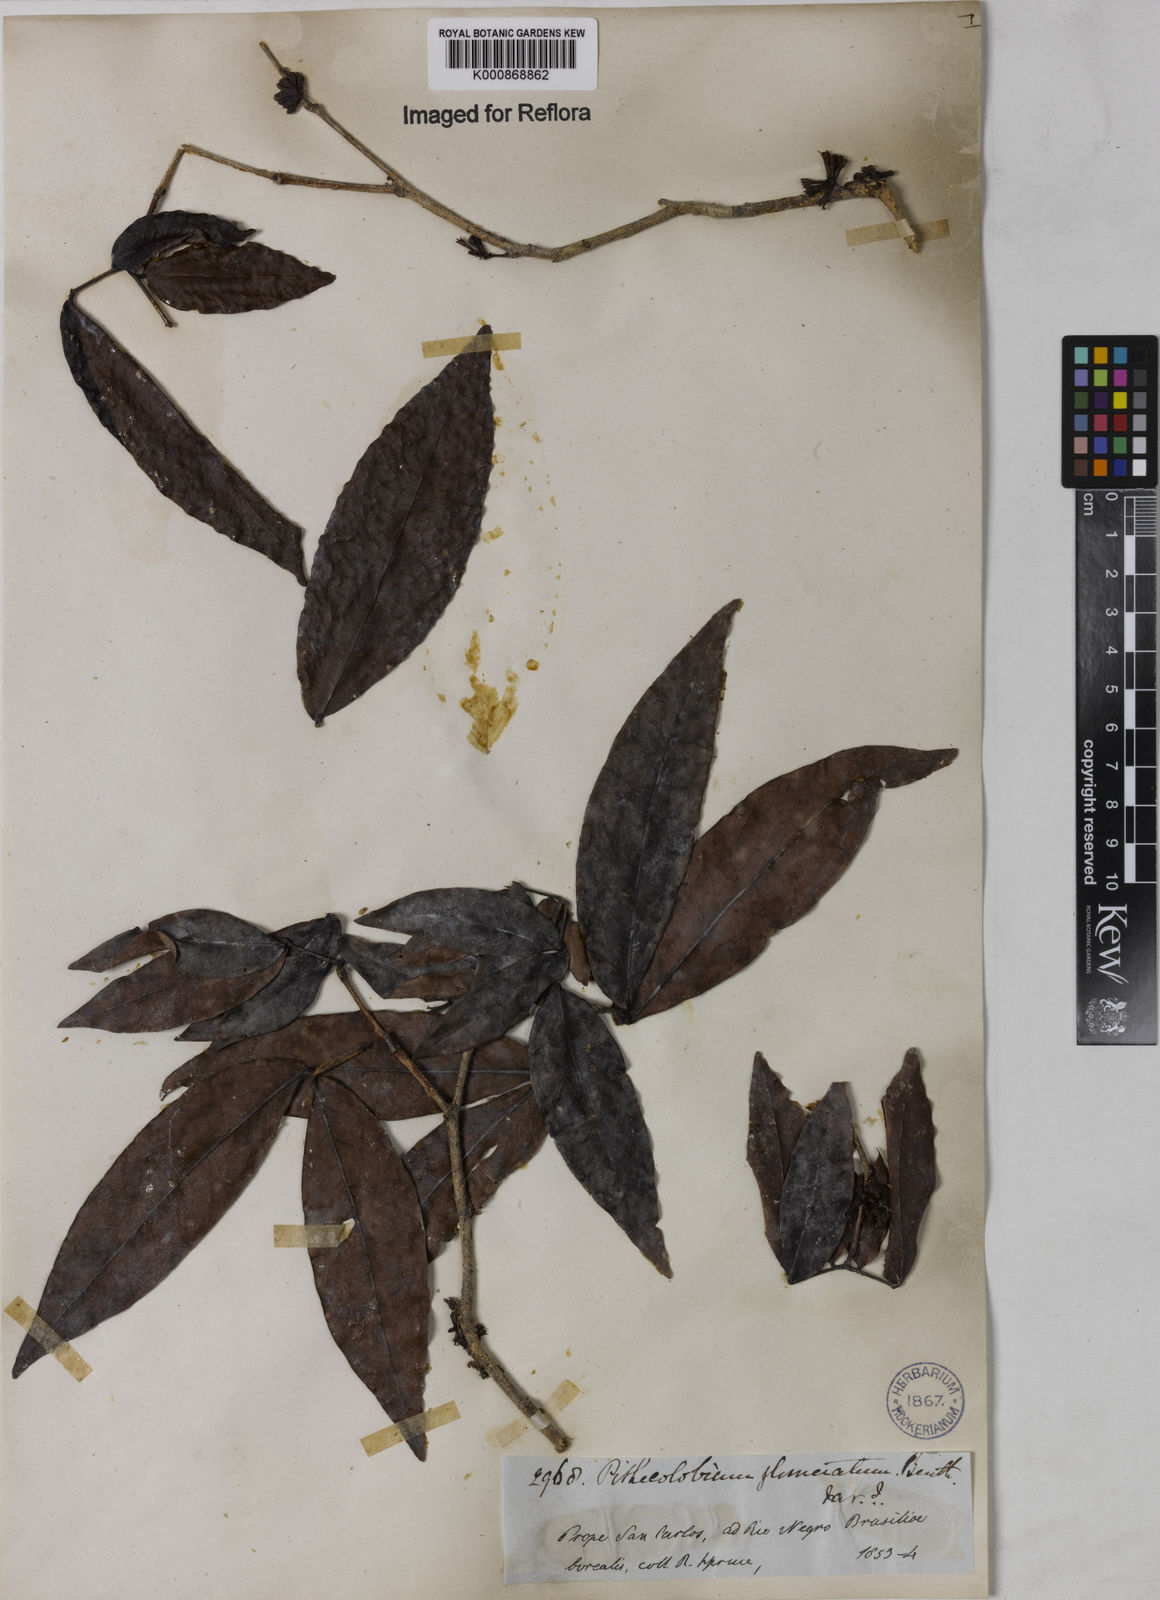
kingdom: Plantae
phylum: Tracheophyta
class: Magnoliopsida
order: Fabales
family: Fabaceae
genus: Zygia
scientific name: Zygia cataractae
